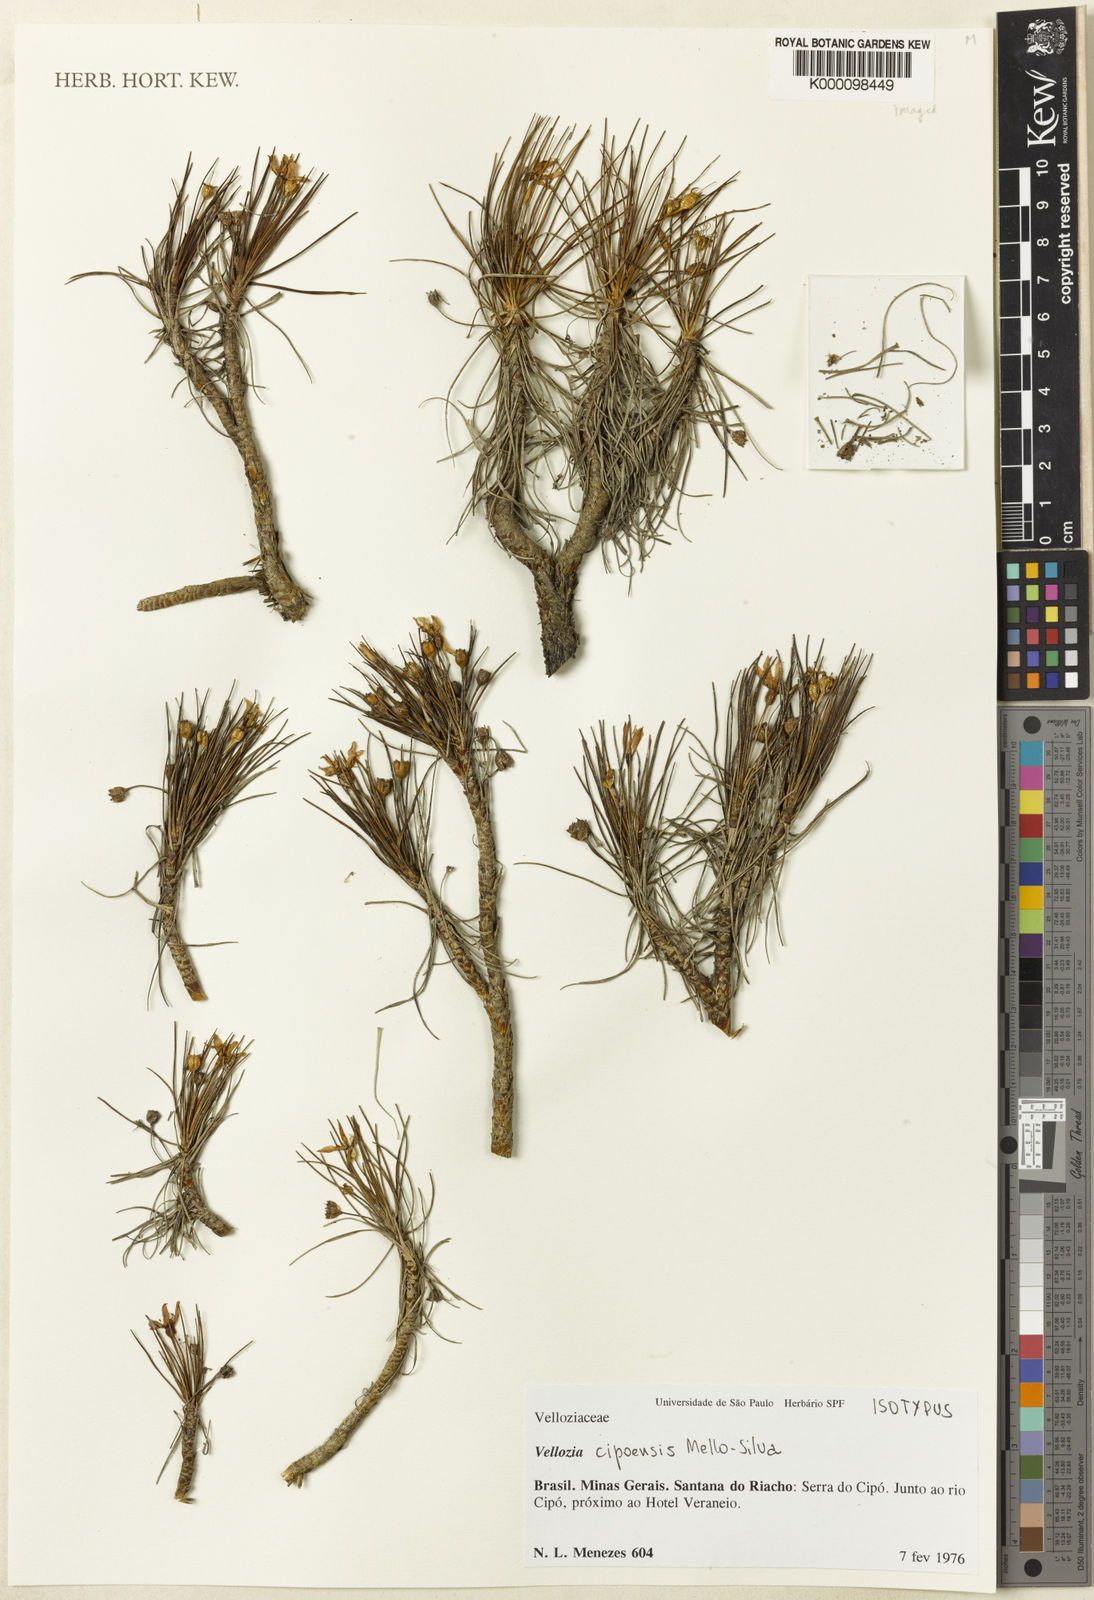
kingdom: Plantae
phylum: Tracheophyta
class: Liliopsida
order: Pandanales
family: Velloziaceae
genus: Vellozia
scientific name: Vellozia
